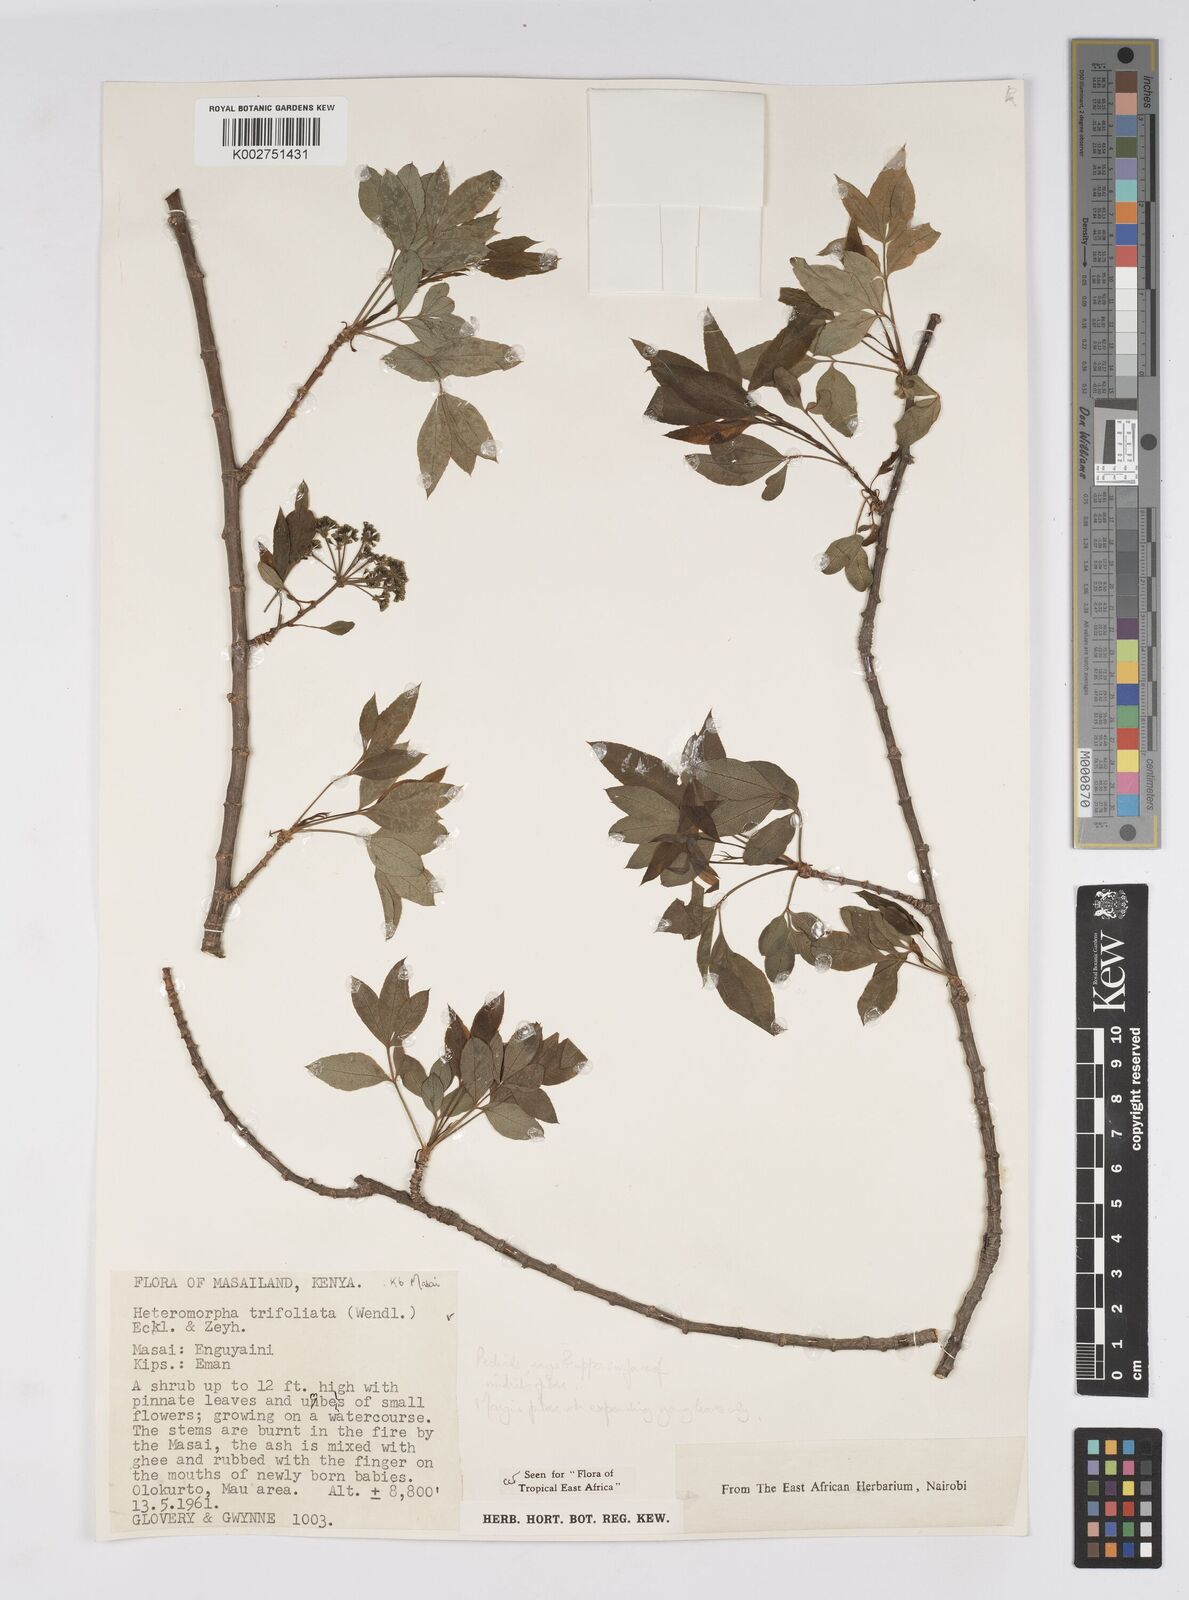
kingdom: Plantae
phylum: Tracheophyta
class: Magnoliopsida
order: Apiales
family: Apiaceae
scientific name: Apiaceae
